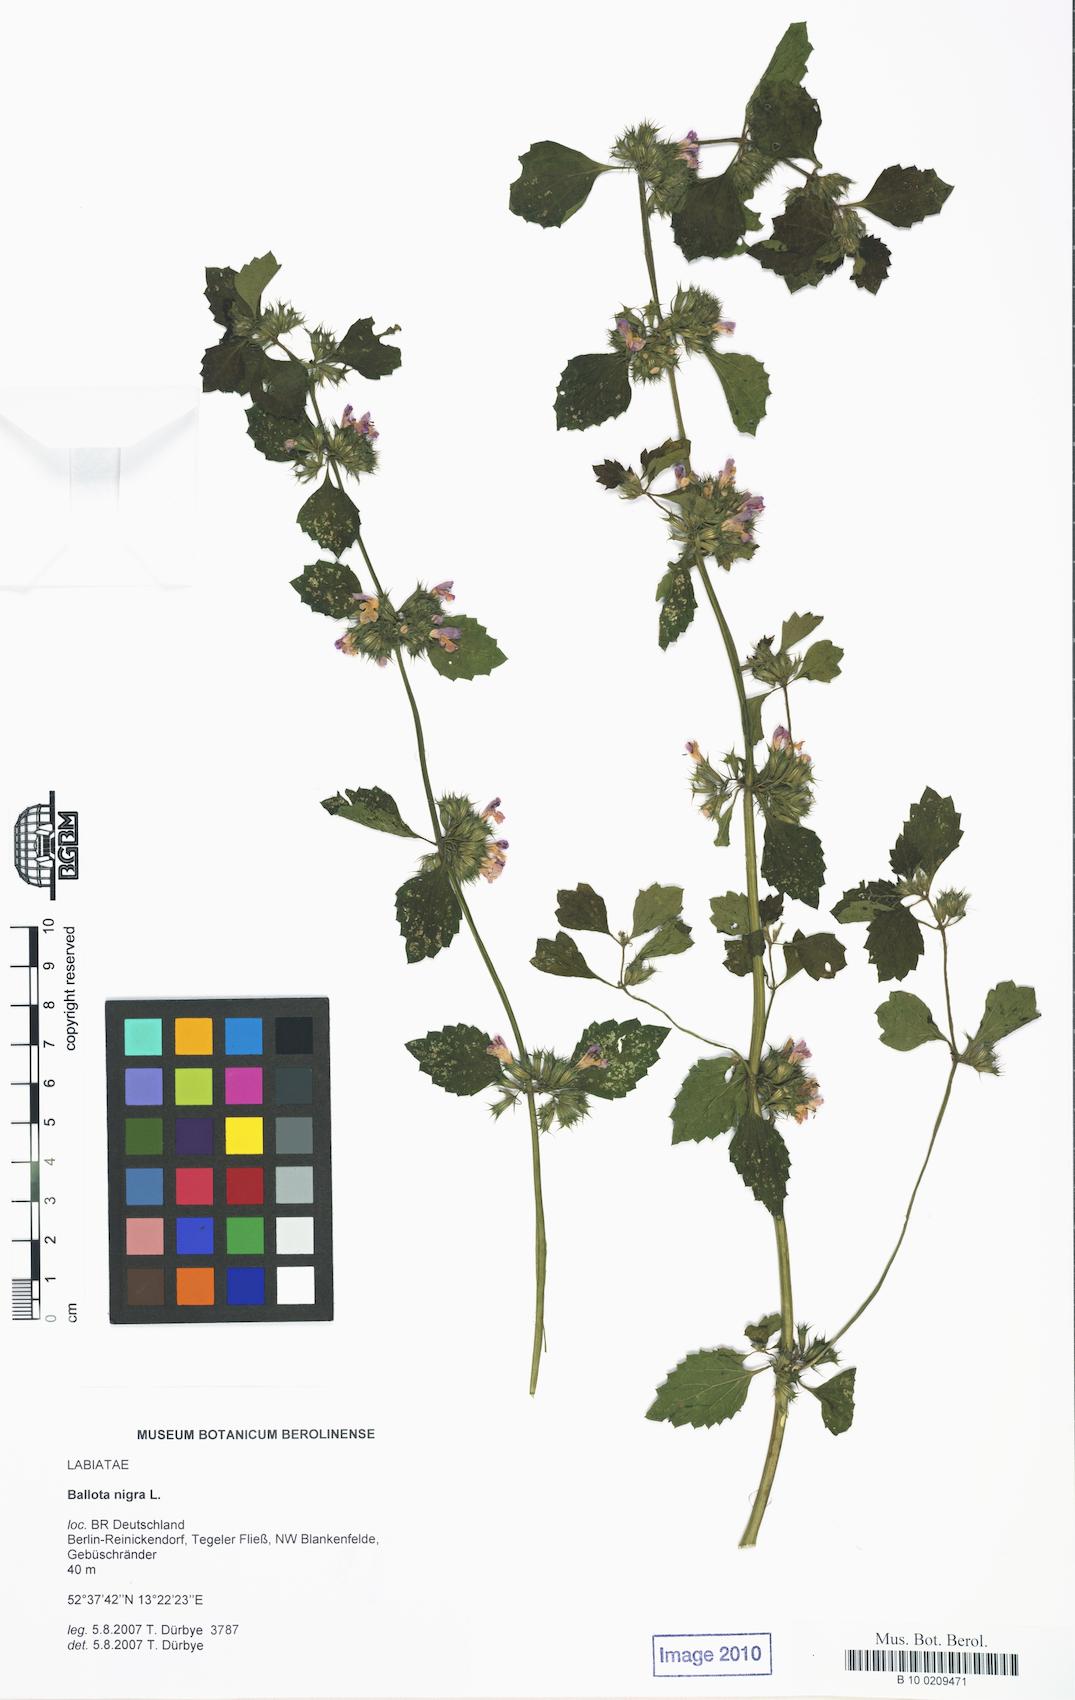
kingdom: Plantae
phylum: Tracheophyta
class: Magnoliopsida
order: Lamiales
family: Lamiaceae
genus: Ballota
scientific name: Ballota nigra
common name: Black horehound
